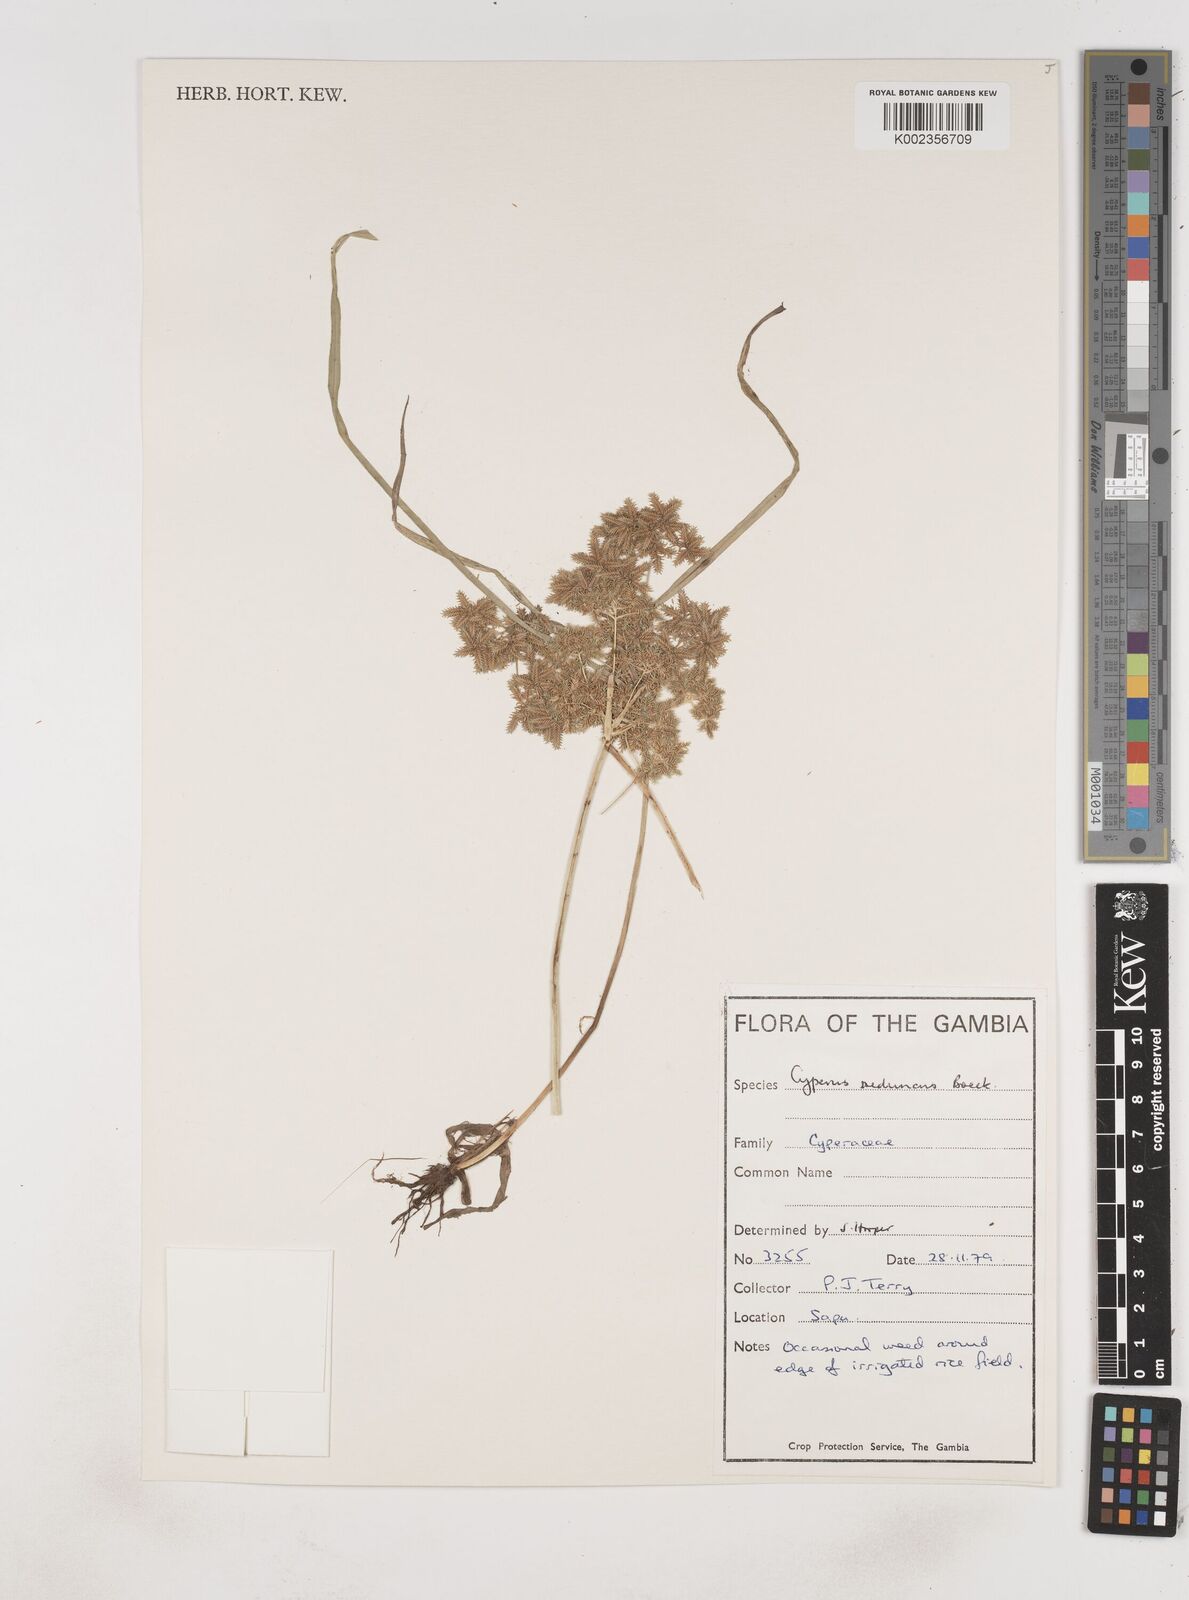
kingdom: Plantae
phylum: Tracheophyta
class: Liliopsida
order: Poales
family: Cyperaceae
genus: Cyperus
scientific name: Cyperus reduncus
